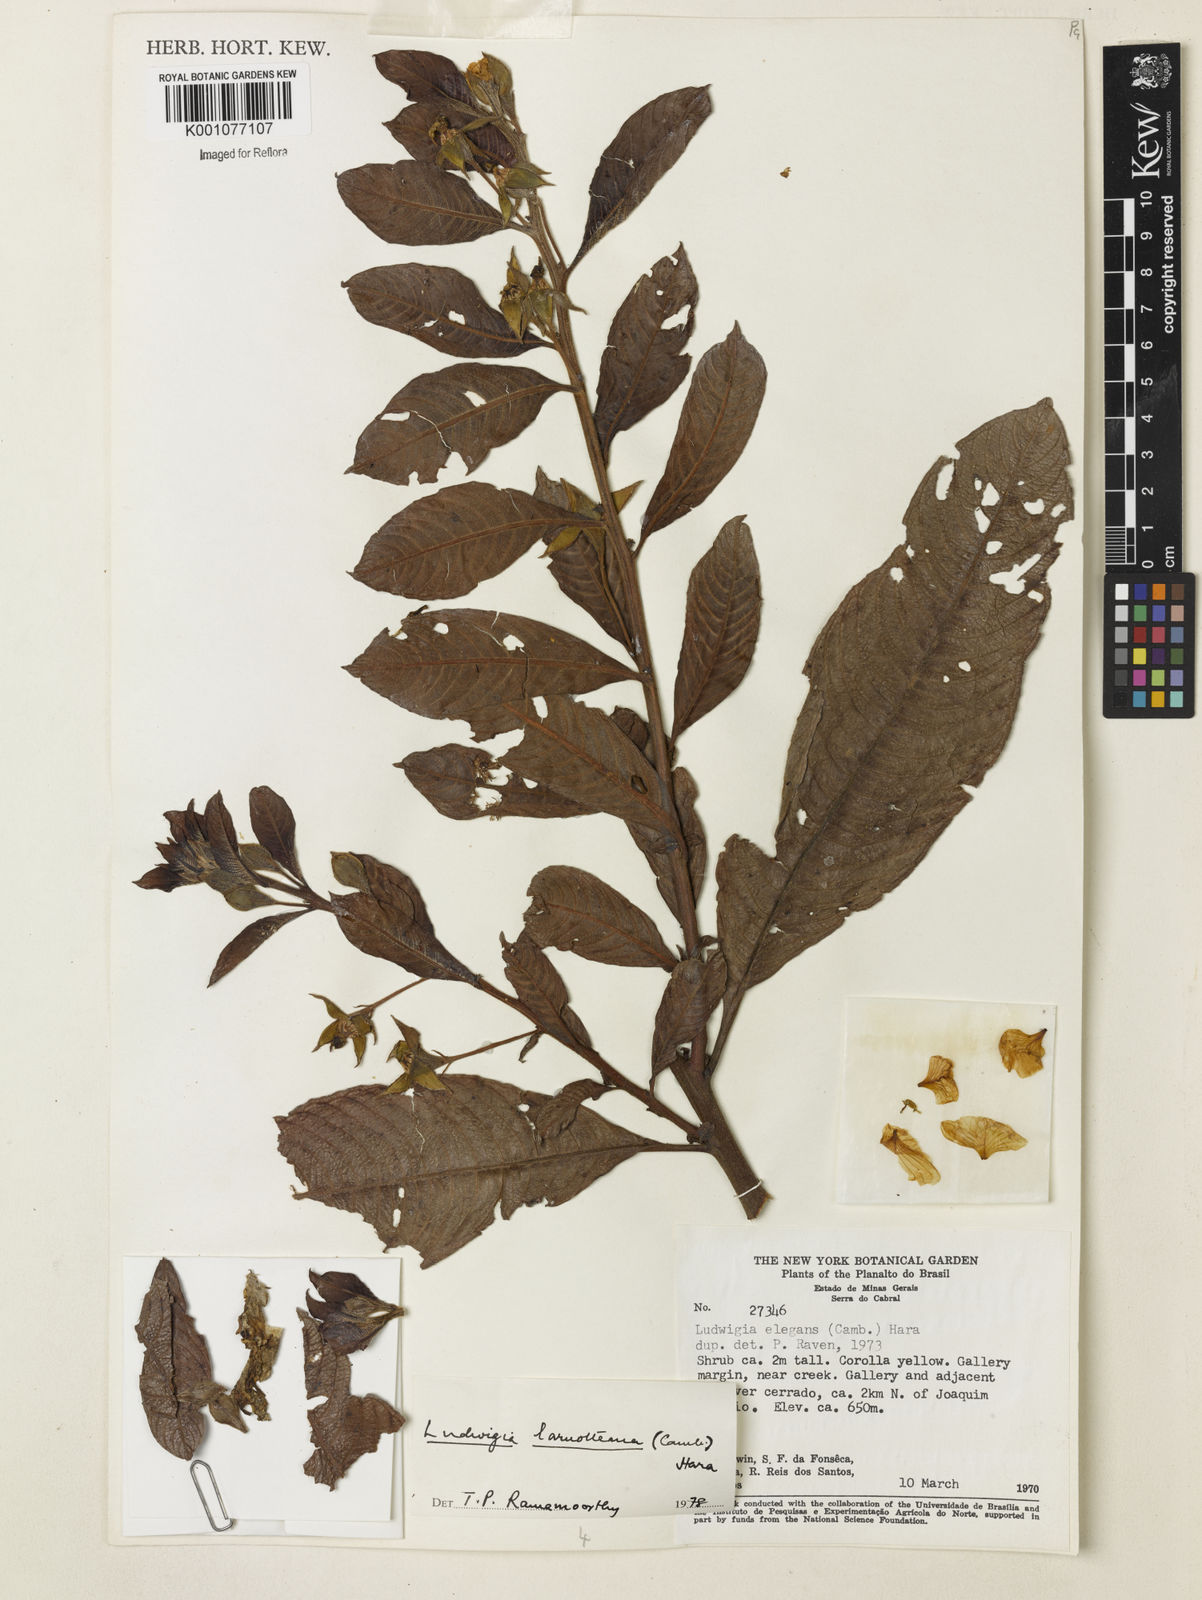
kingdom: Plantae
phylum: Tracheophyta
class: Magnoliopsida
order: Myrtales
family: Onagraceae
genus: Ludwigia
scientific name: Ludwigia laruotteana
